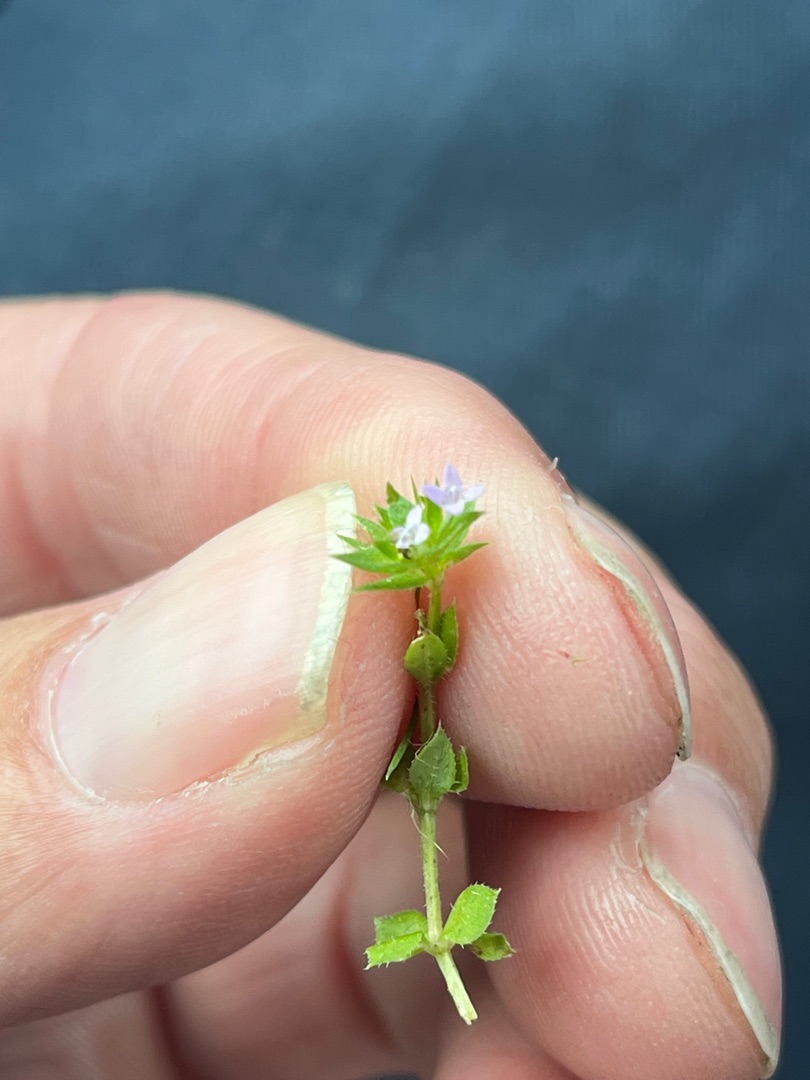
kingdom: Plantae
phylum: Tracheophyta
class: Magnoliopsida
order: Gentianales
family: Rubiaceae
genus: Sherardia
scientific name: Sherardia arvensis
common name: Blåstjerne
